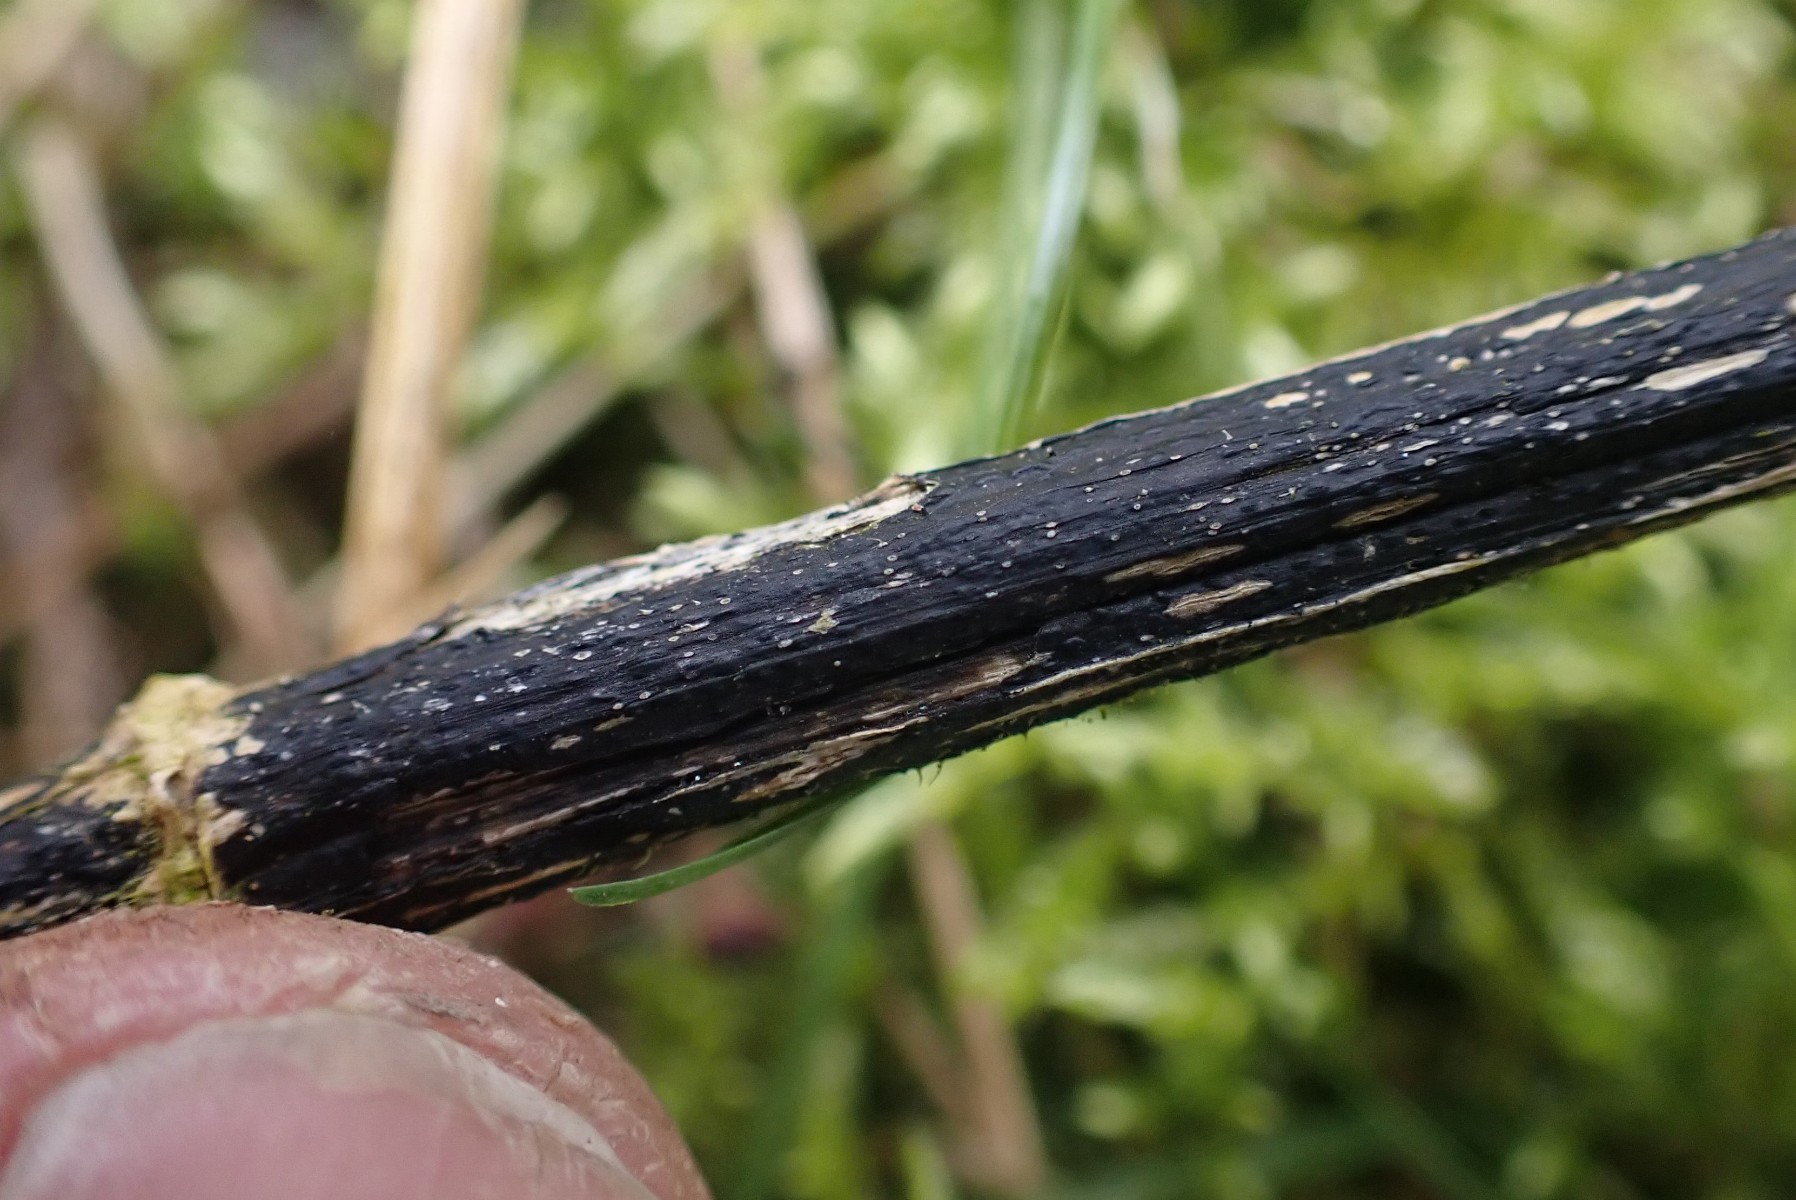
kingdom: Fungi
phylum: Ascomycota
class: Sordariomycetes
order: Diaporthales
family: Diaporthaceae
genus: Diaporthopsis
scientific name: Diaporthopsis urticae
